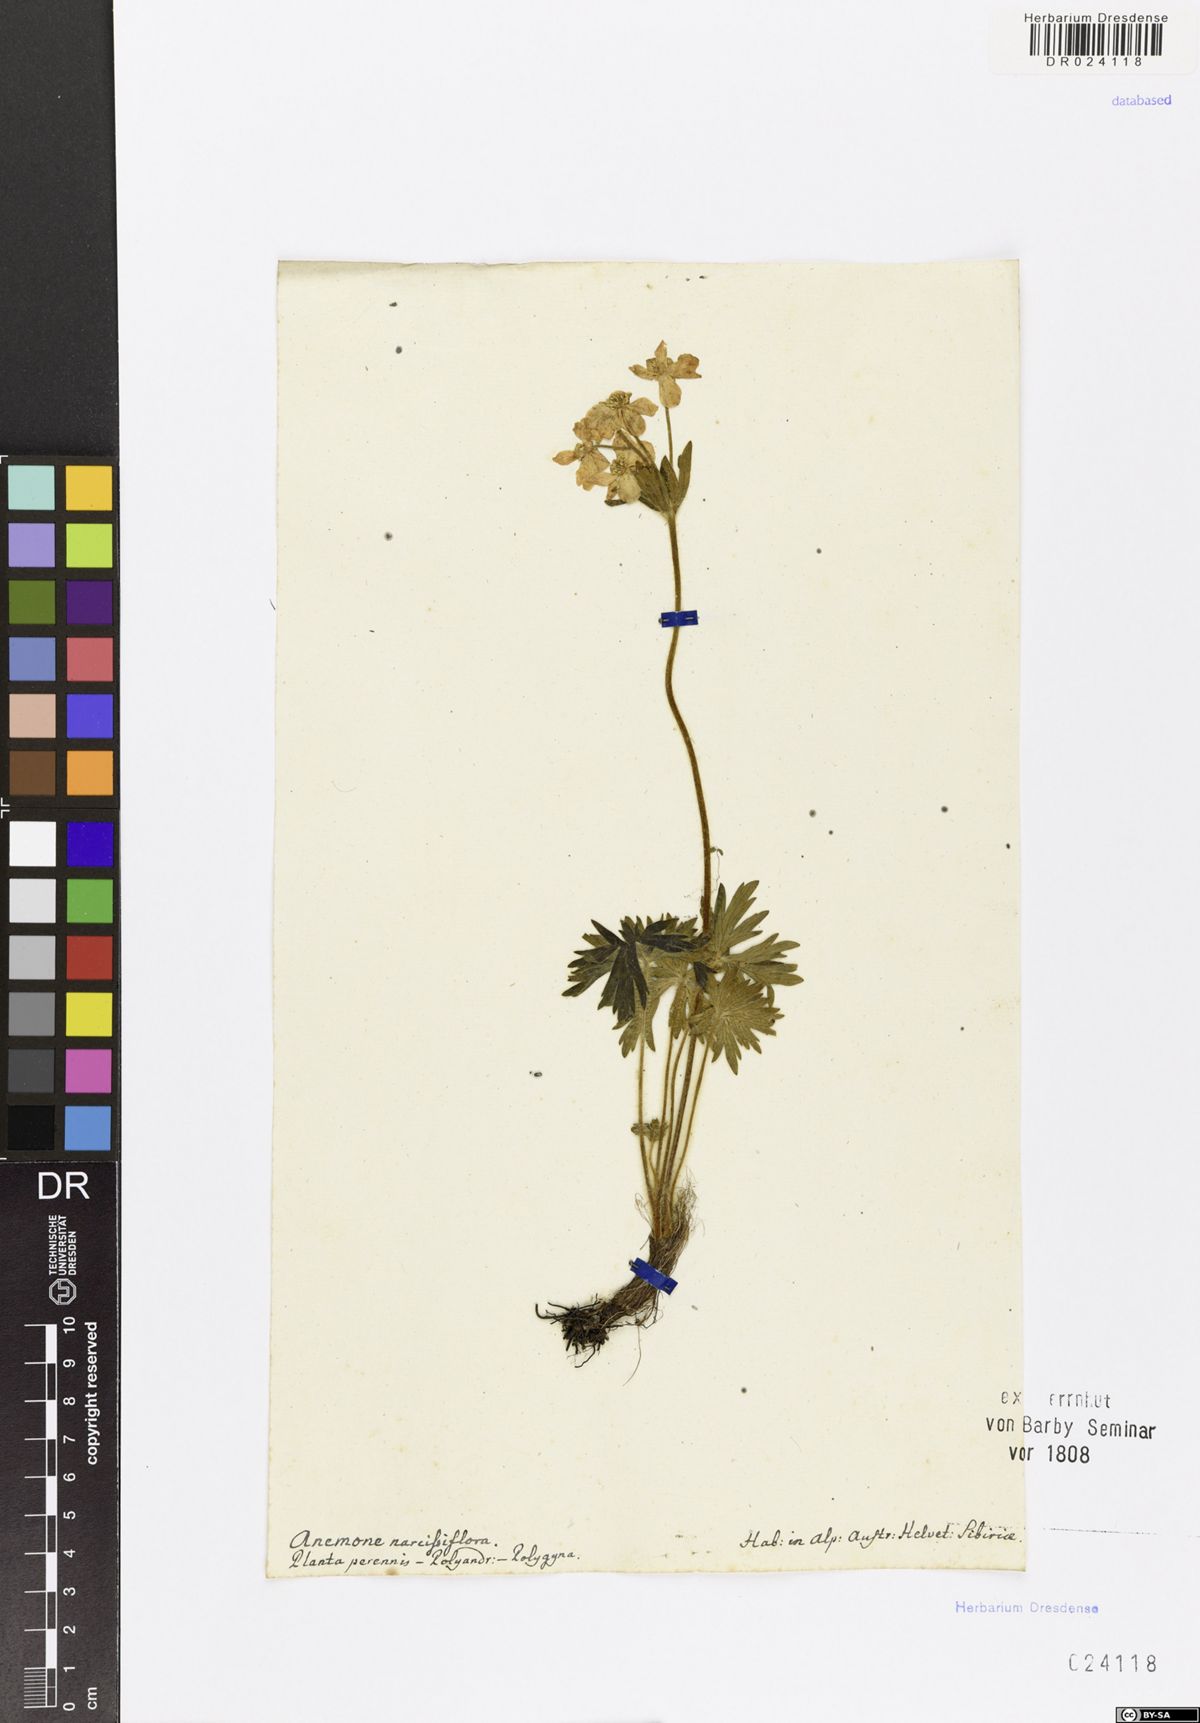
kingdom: Plantae
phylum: Tracheophyta
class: Magnoliopsida
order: Ranunculales
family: Ranunculaceae
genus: Anemonastrum
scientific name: Anemonastrum narcissiflorum
